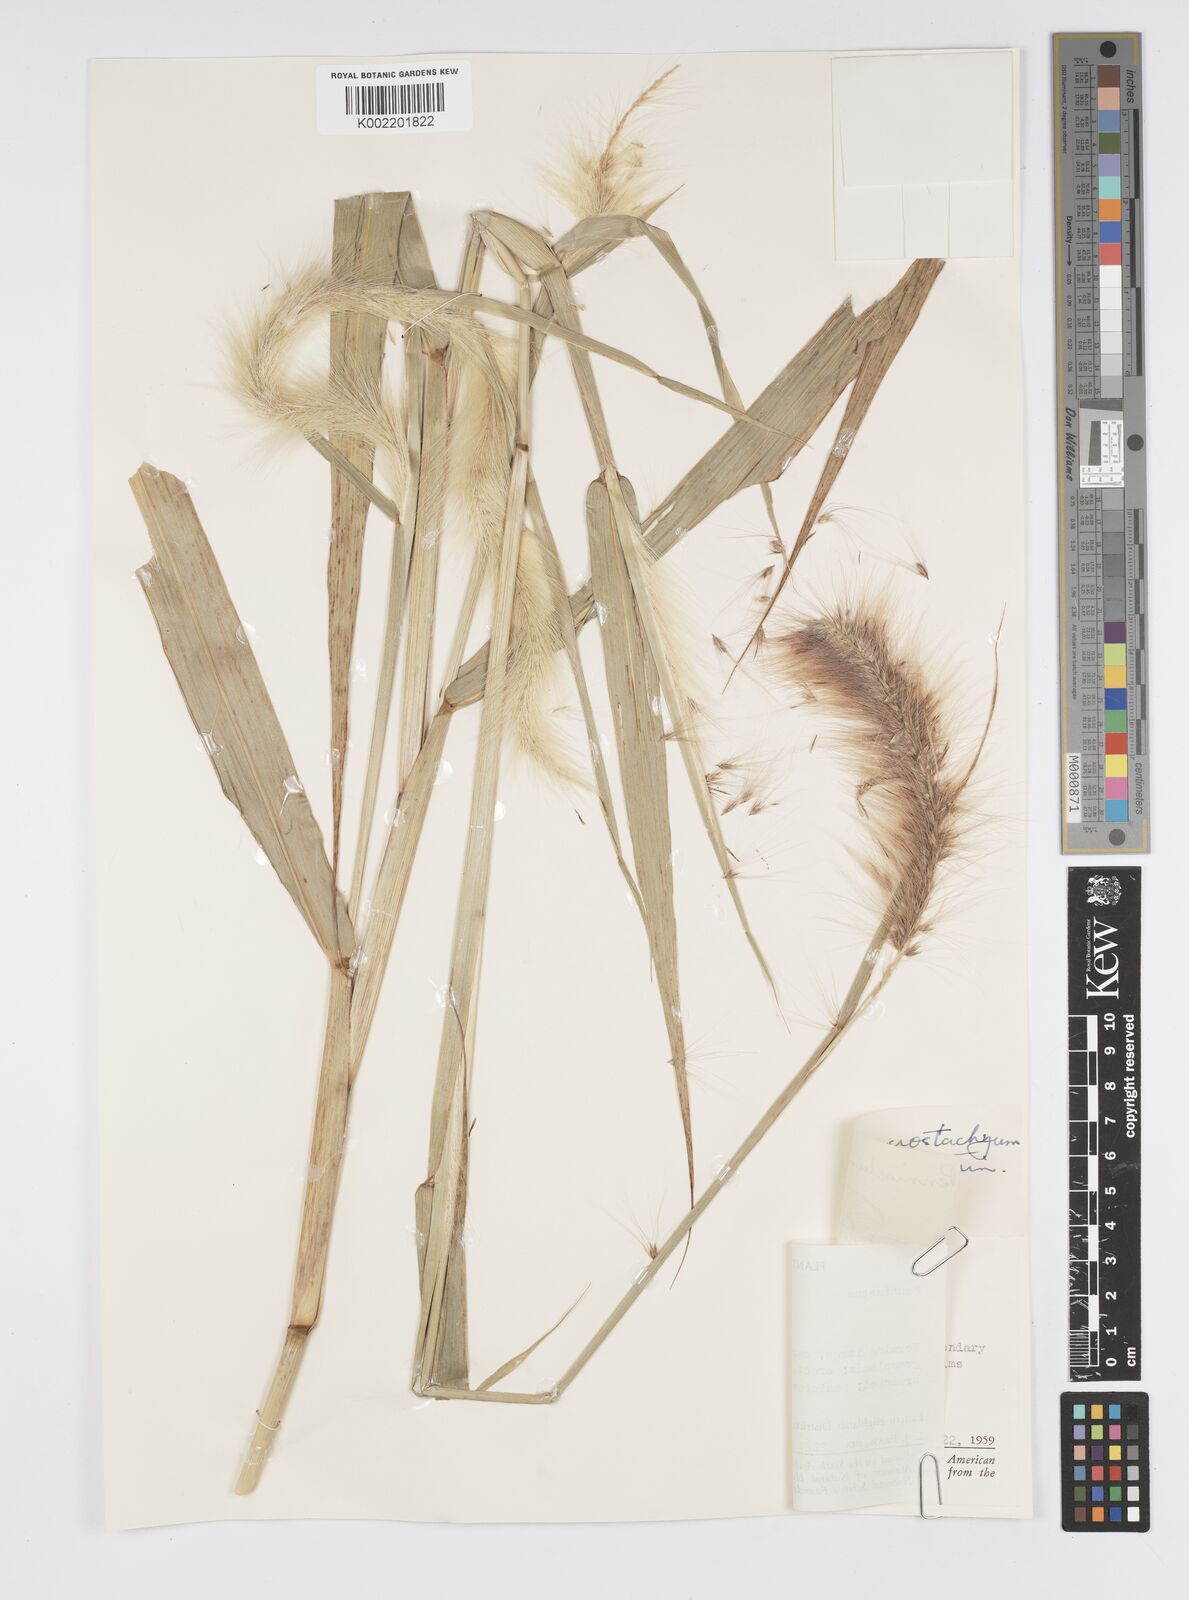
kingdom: Plantae
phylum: Tracheophyta
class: Liliopsida
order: Poales
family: Poaceae
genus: Cenchrus
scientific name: Cenchrus purpureus
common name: Elephant grass
